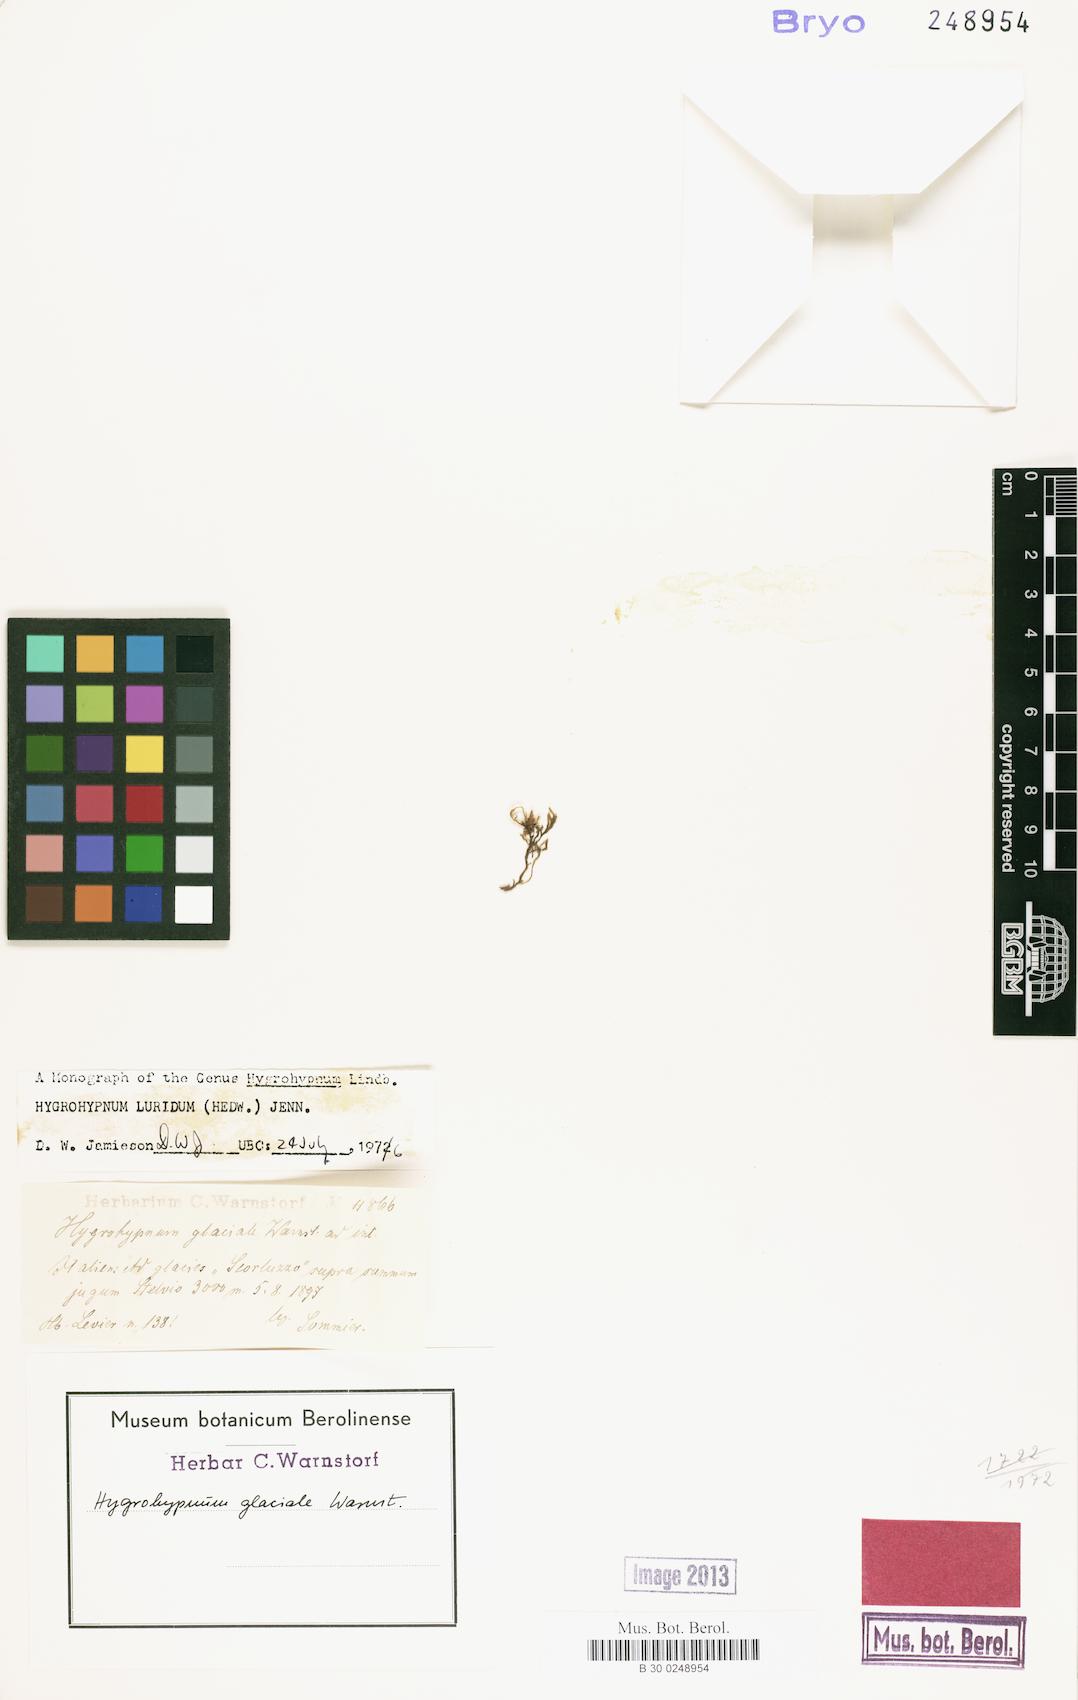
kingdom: Plantae
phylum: Bryophyta
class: Bryopsida
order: Hypnales
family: Amblystegiaceae
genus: Hygrohypnum
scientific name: Hygrohypnum luridum
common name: Drab brook moss
